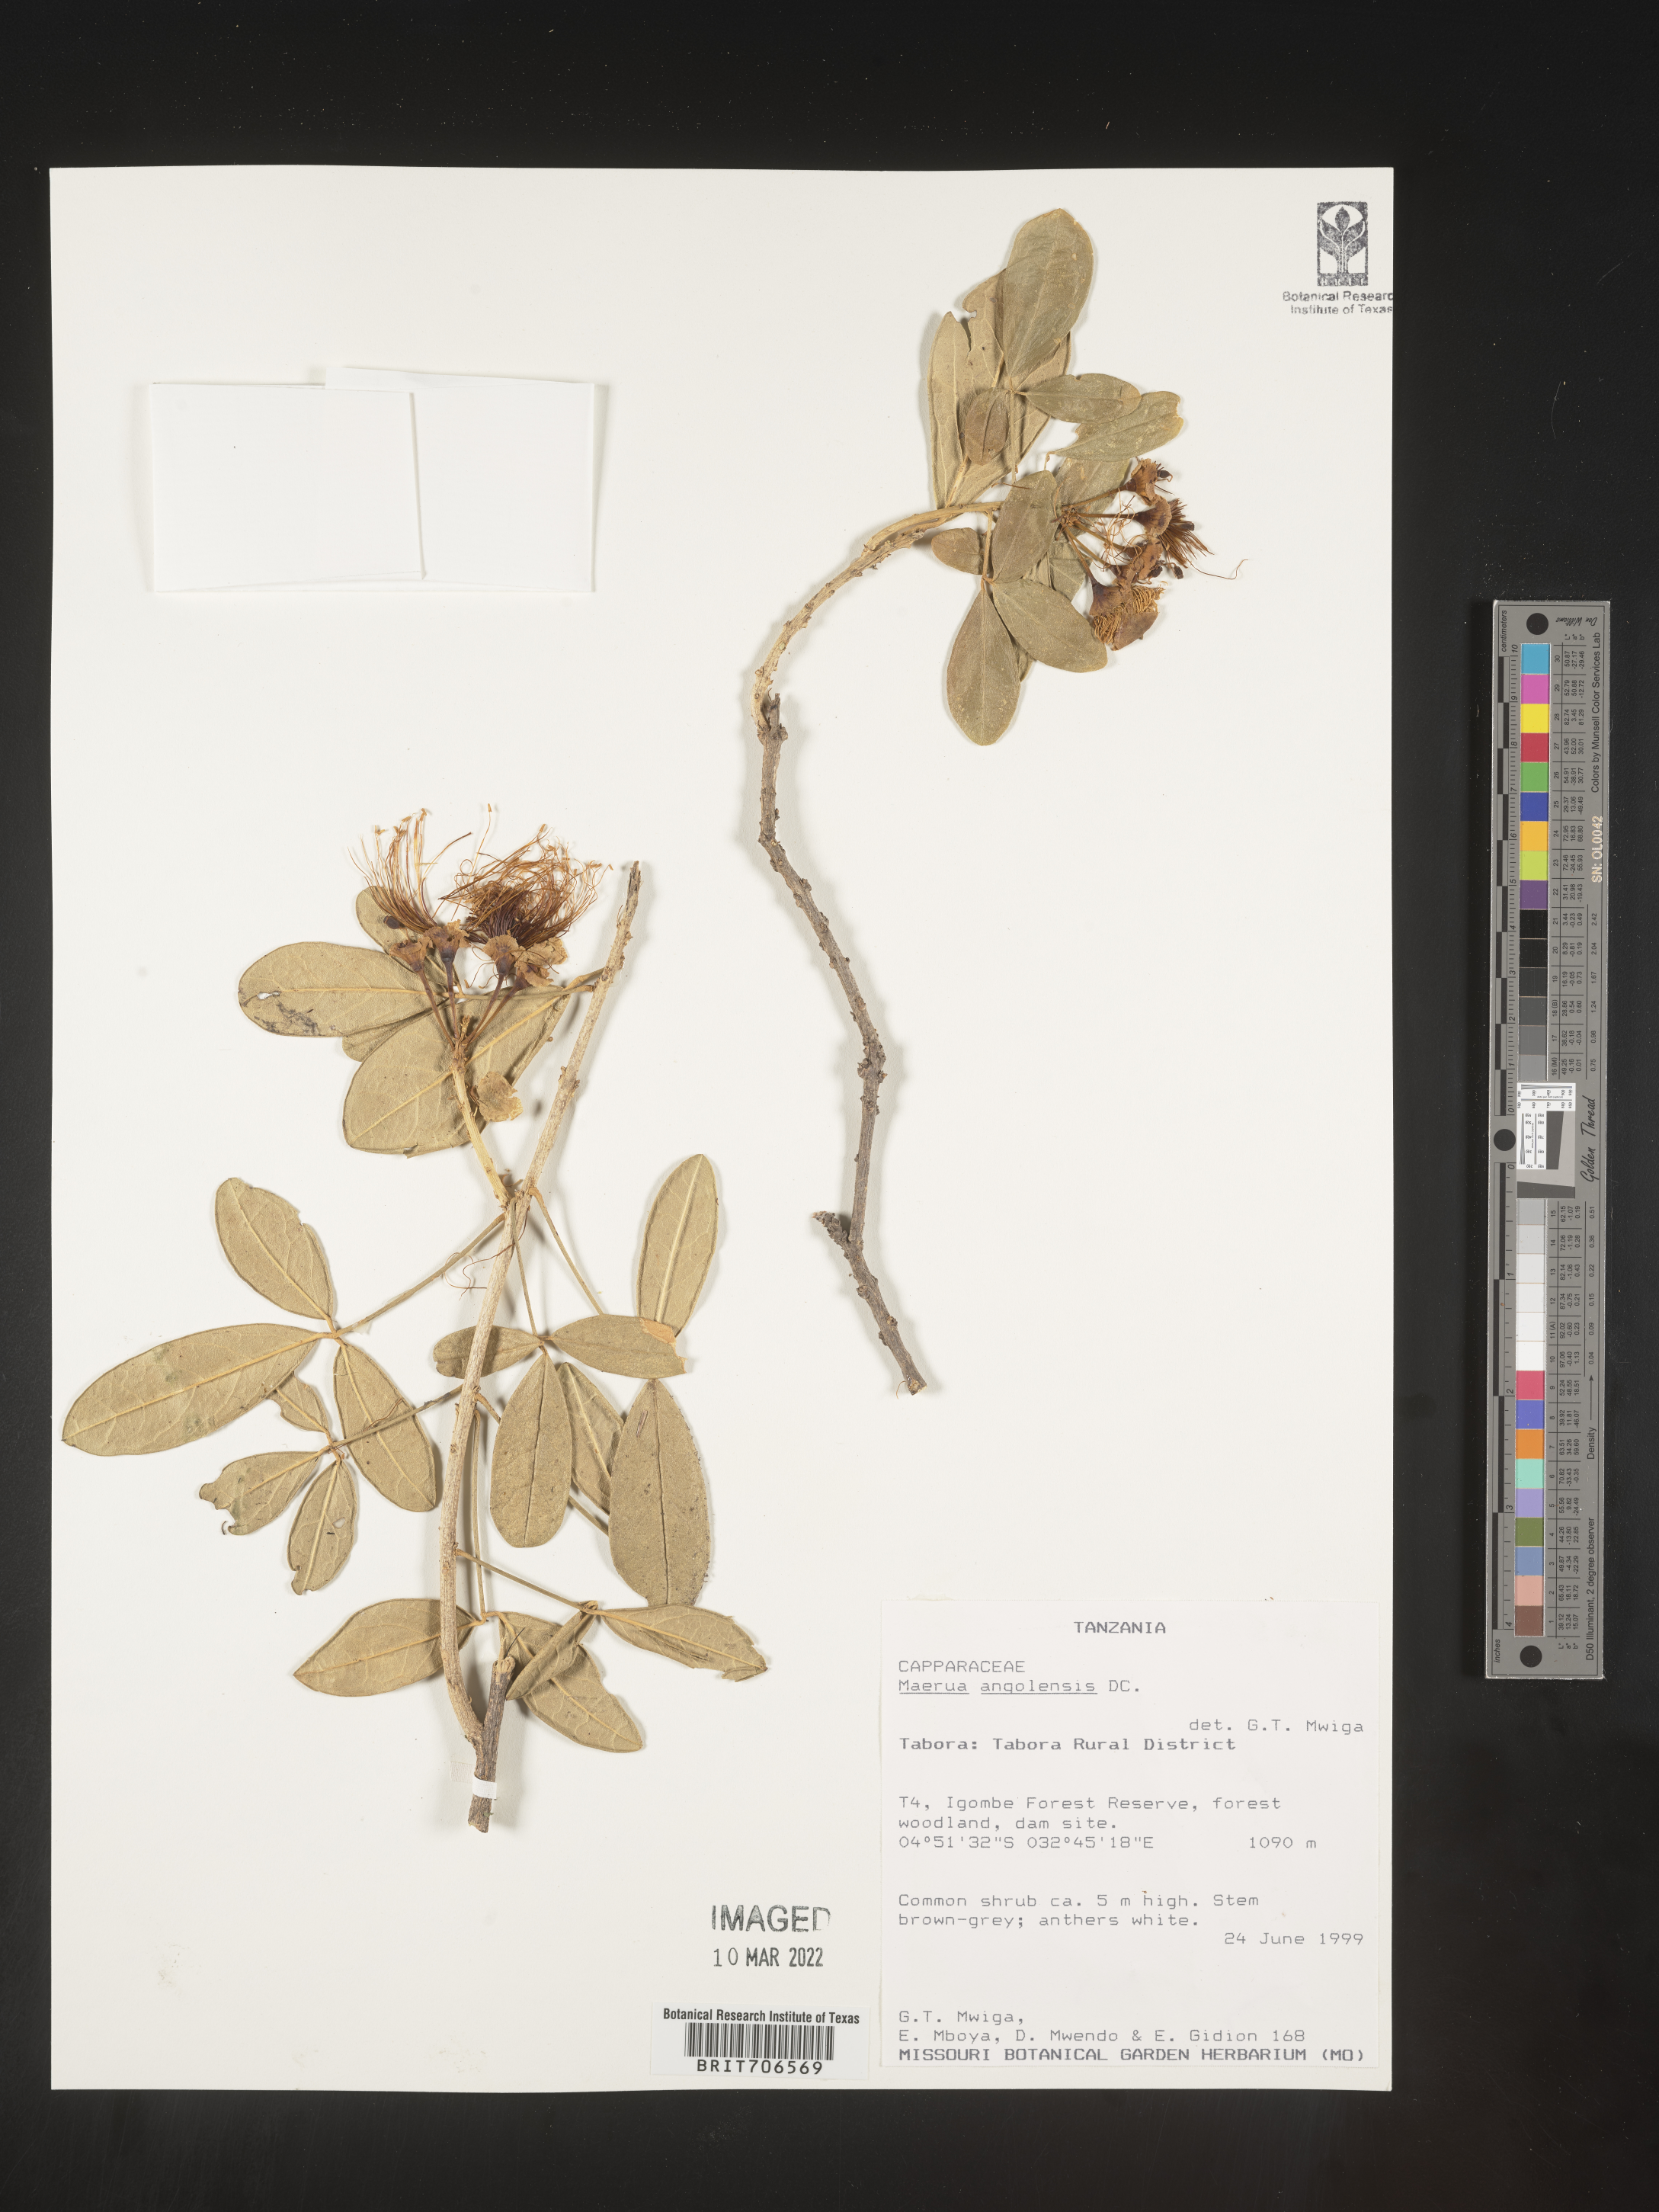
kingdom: Plantae
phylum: Tracheophyta
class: Magnoliopsida
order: Brassicales
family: Capparaceae
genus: Maerua
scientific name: Maerua
